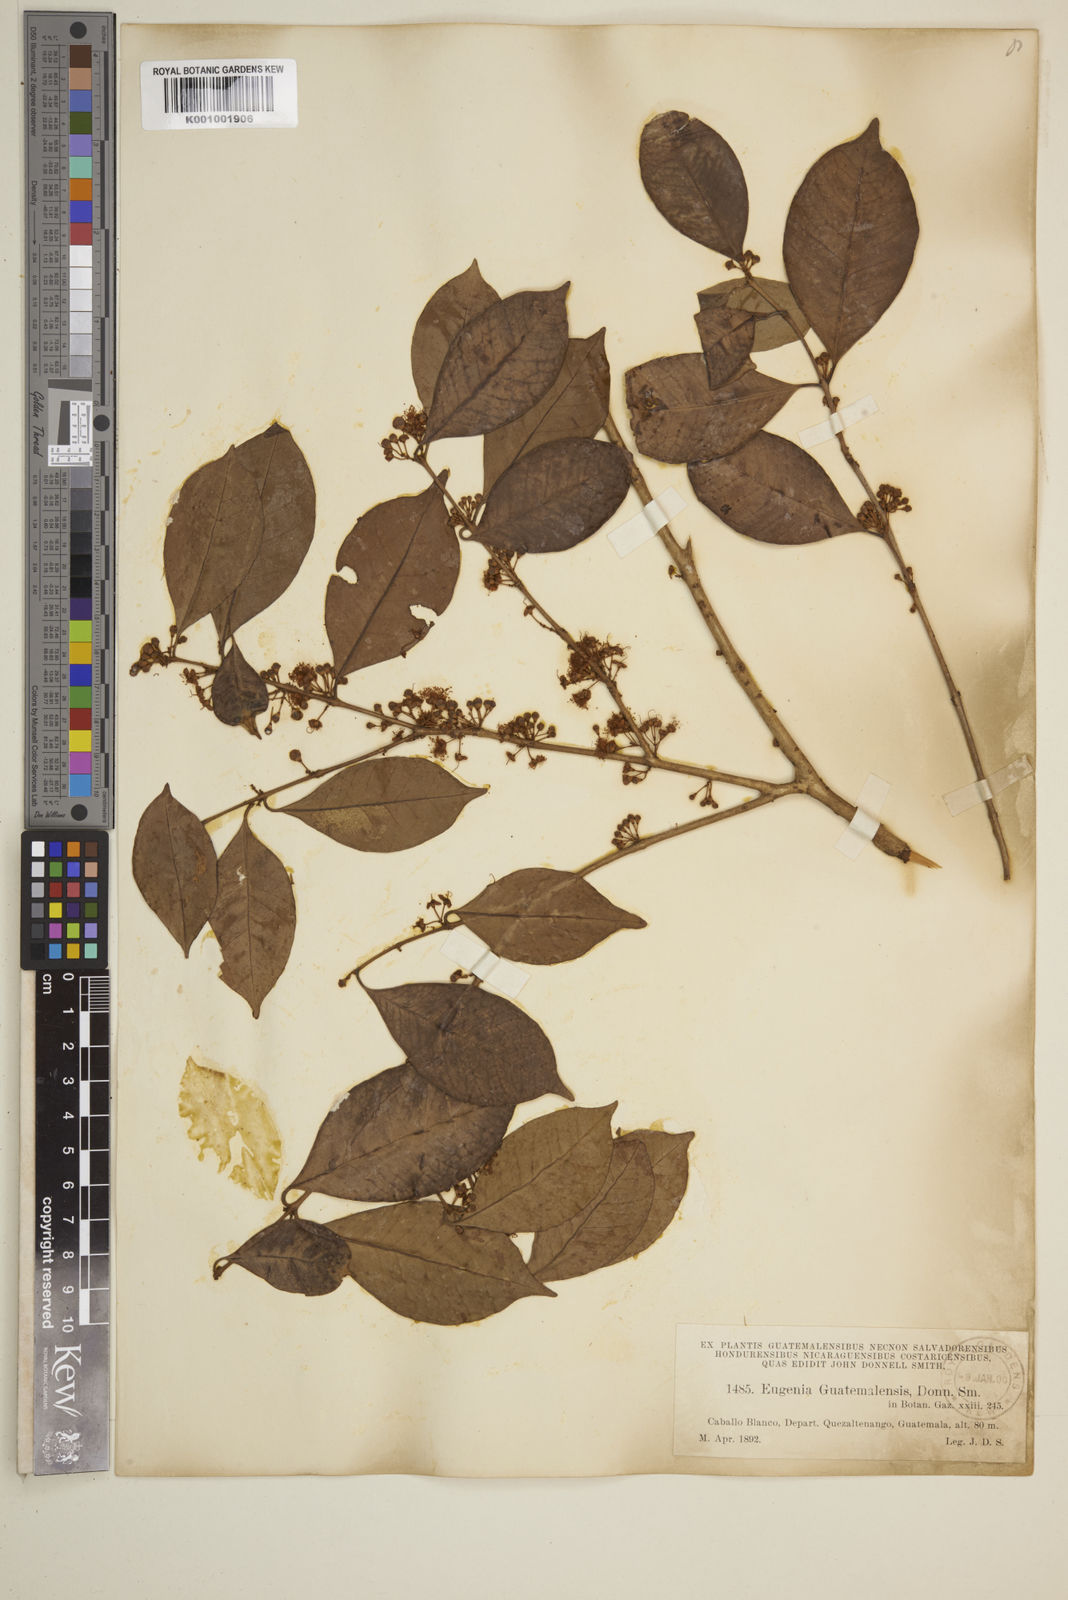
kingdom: Plantae
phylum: Tracheophyta
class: Magnoliopsida
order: Myrtales
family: Myrtaceae
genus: Eugenia
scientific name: Eugenia guatemalensis
